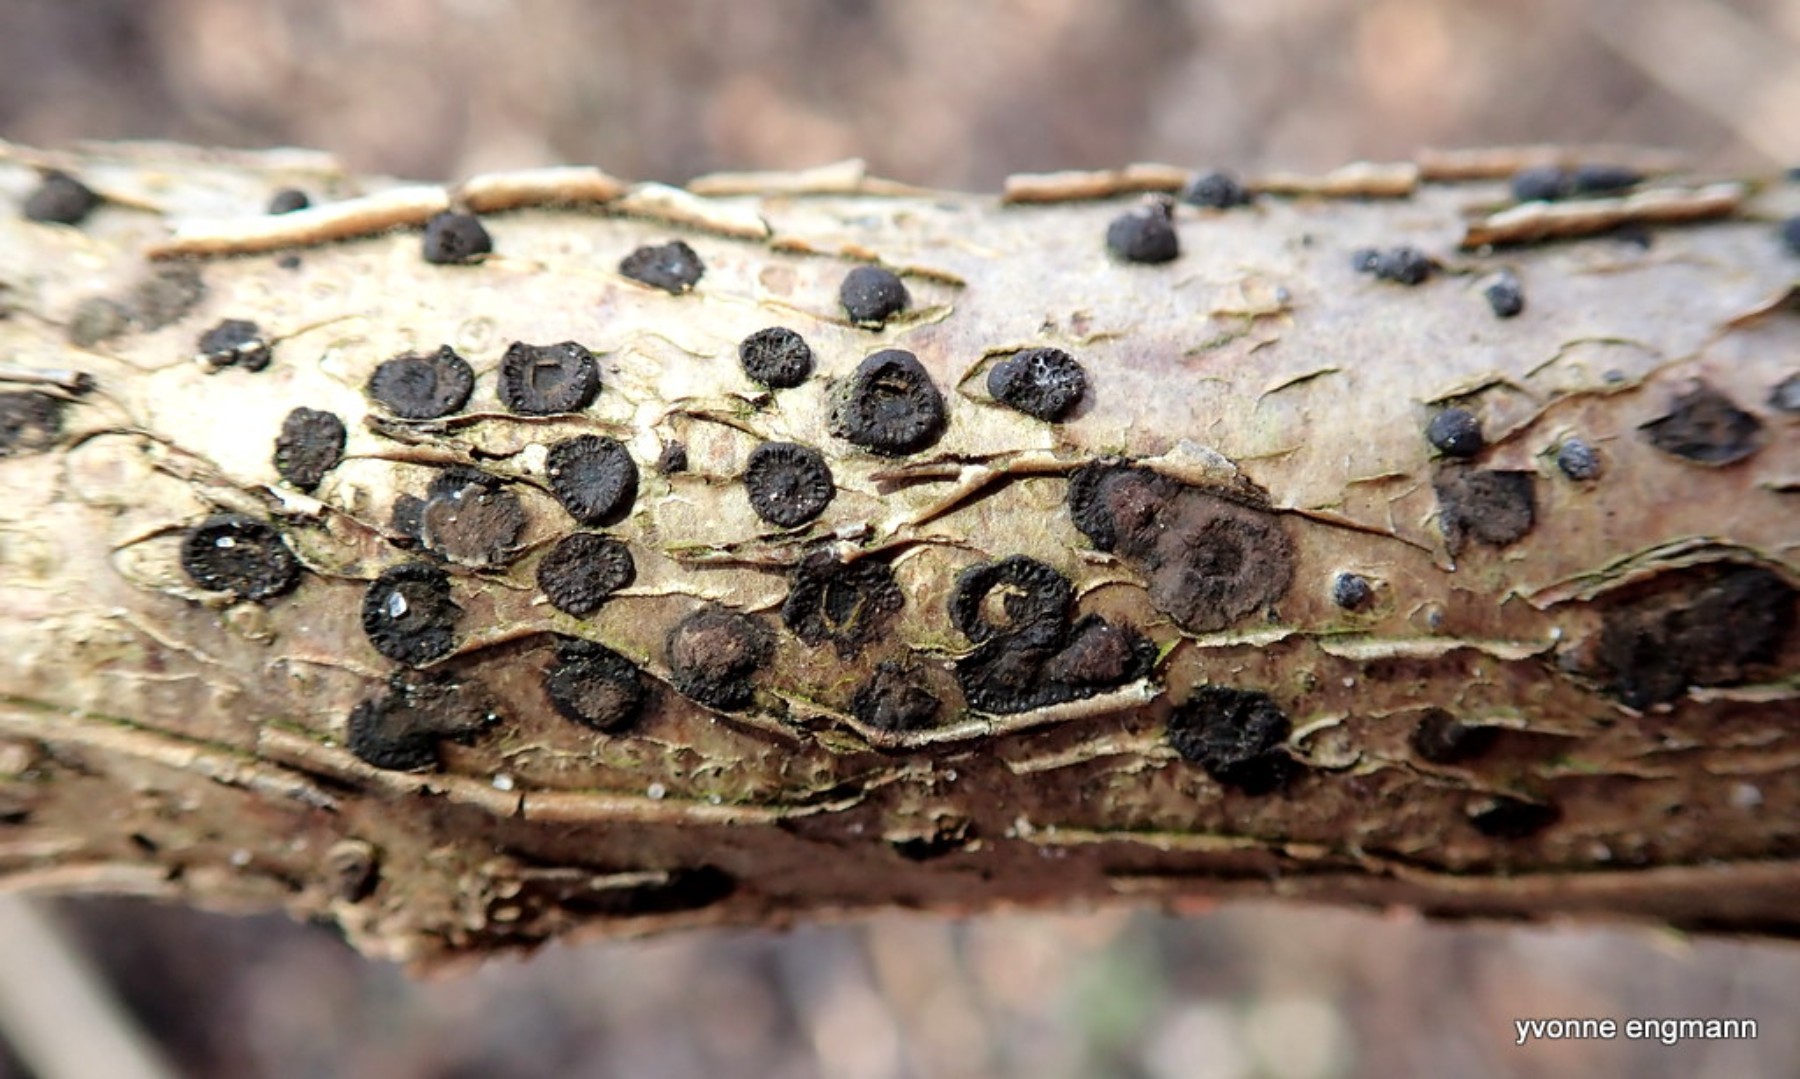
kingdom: Fungi
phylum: Ascomycota
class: Sordariomycetes
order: Xylariales
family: Hypoxylaceae
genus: Hypoxylon
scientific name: Hypoxylon fuscum
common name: kegleformet kulbær
